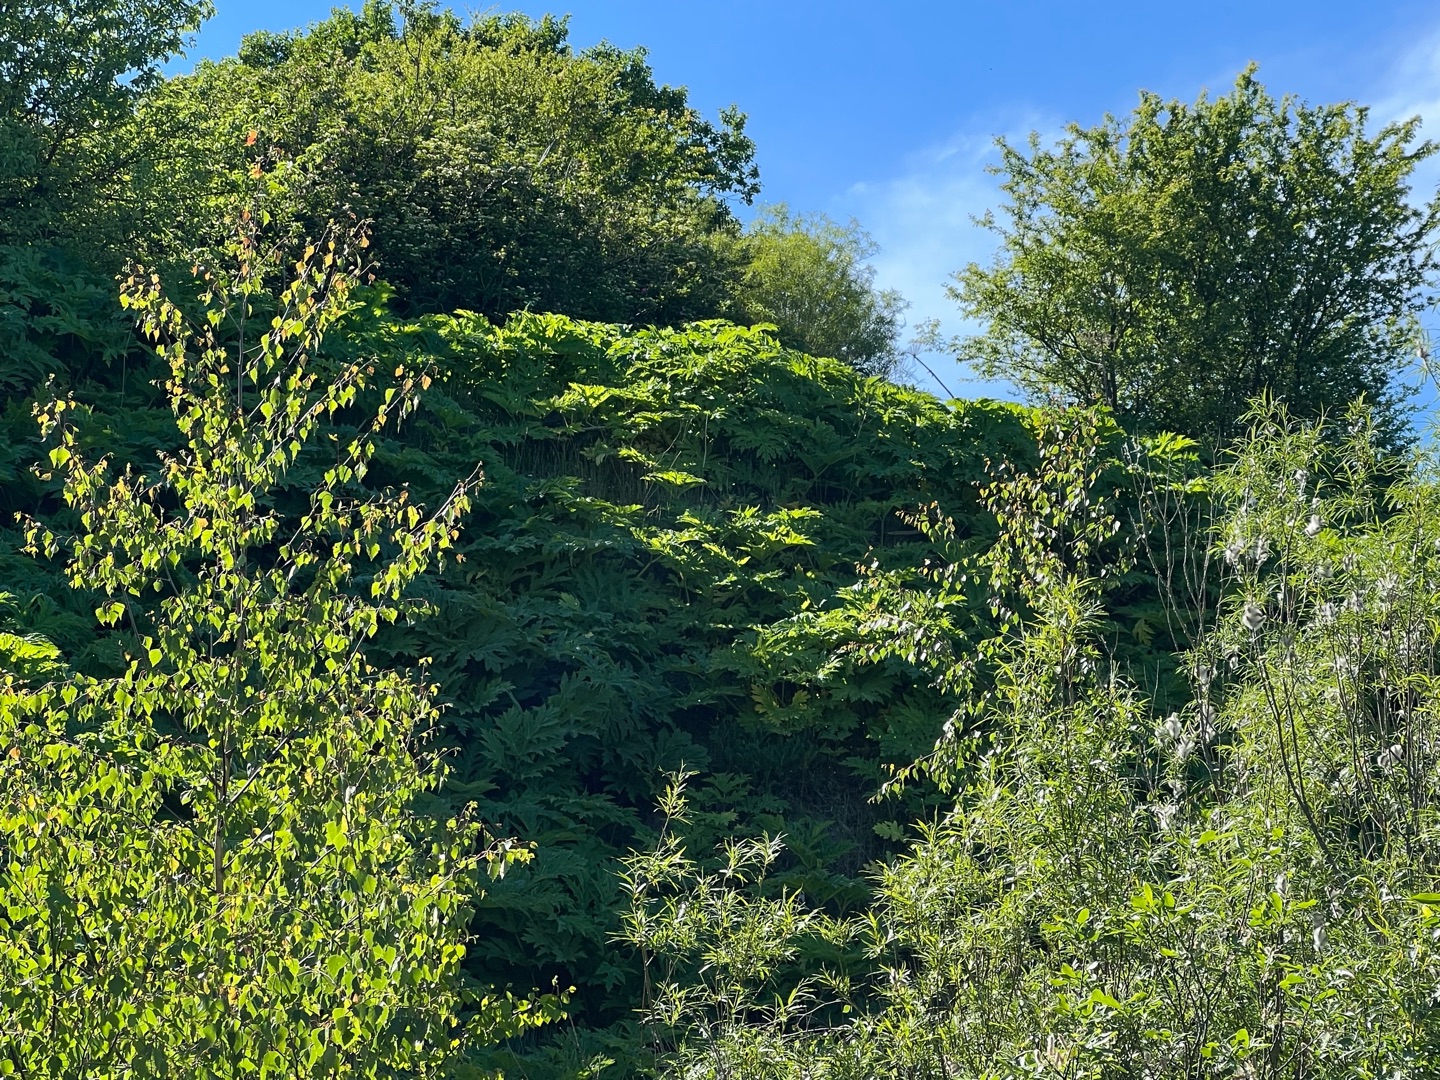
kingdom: Plantae
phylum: Tracheophyta
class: Magnoliopsida
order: Apiales
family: Apiaceae
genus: Heracleum
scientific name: Heracleum mantegazzianum
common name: Kæmpe-bjørneklo
